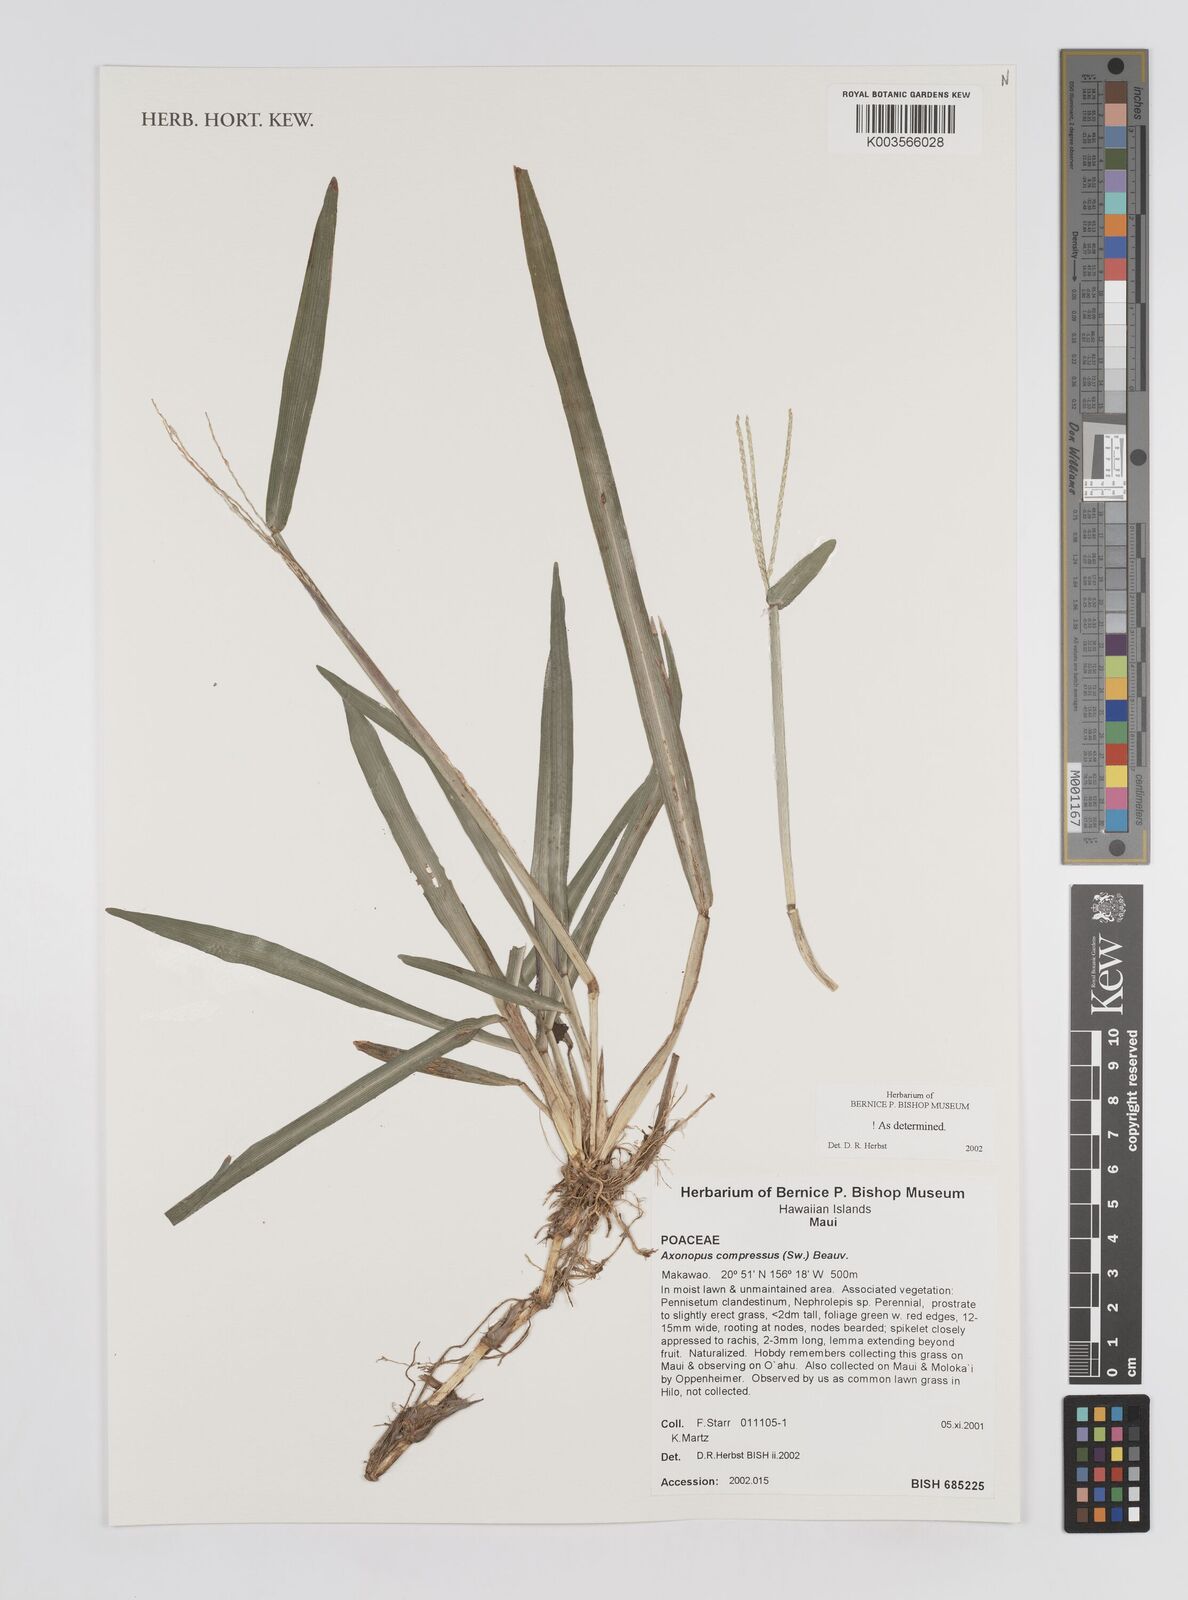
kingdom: Plantae
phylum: Tracheophyta
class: Liliopsida
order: Poales
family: Poaceae
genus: Axonopus
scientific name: Axonopus compressus
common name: American carpet grass
